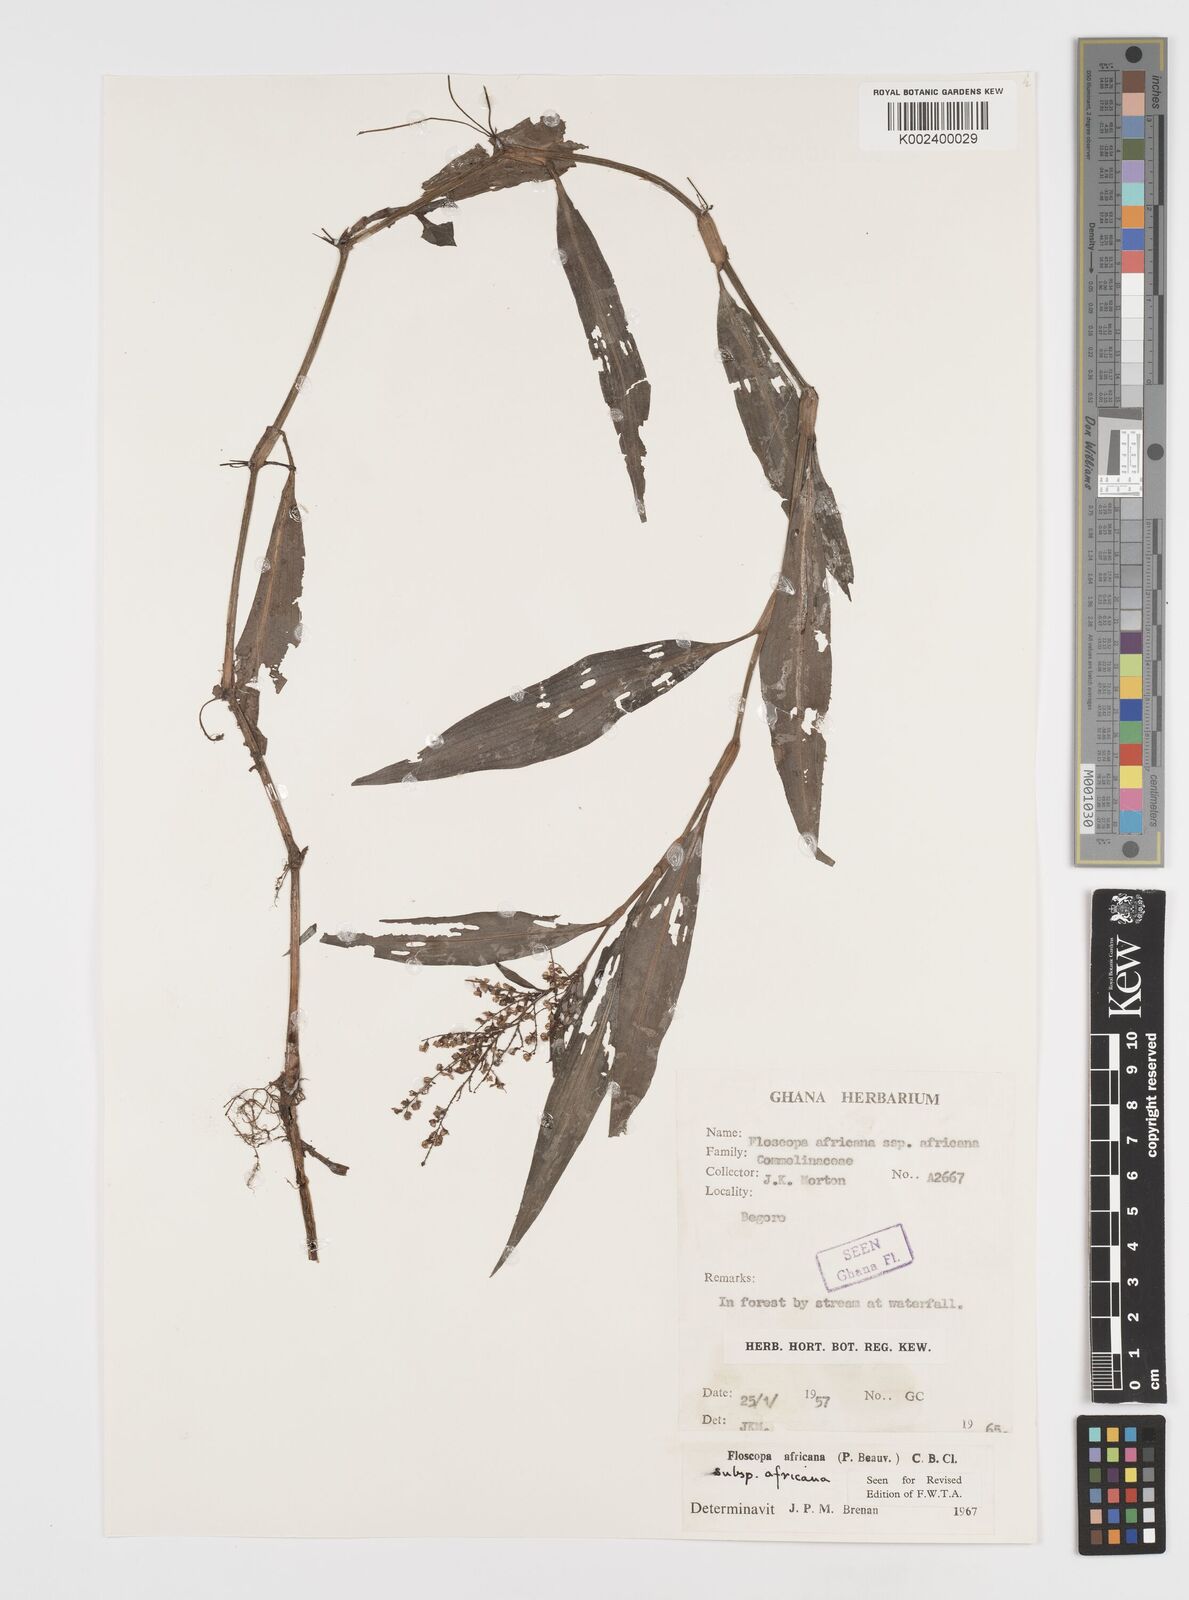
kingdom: Plantae
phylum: Tracheophyta
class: Liliopsida
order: Commelinales
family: Commelinaceae
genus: Floscopa
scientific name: Floscopa africana
